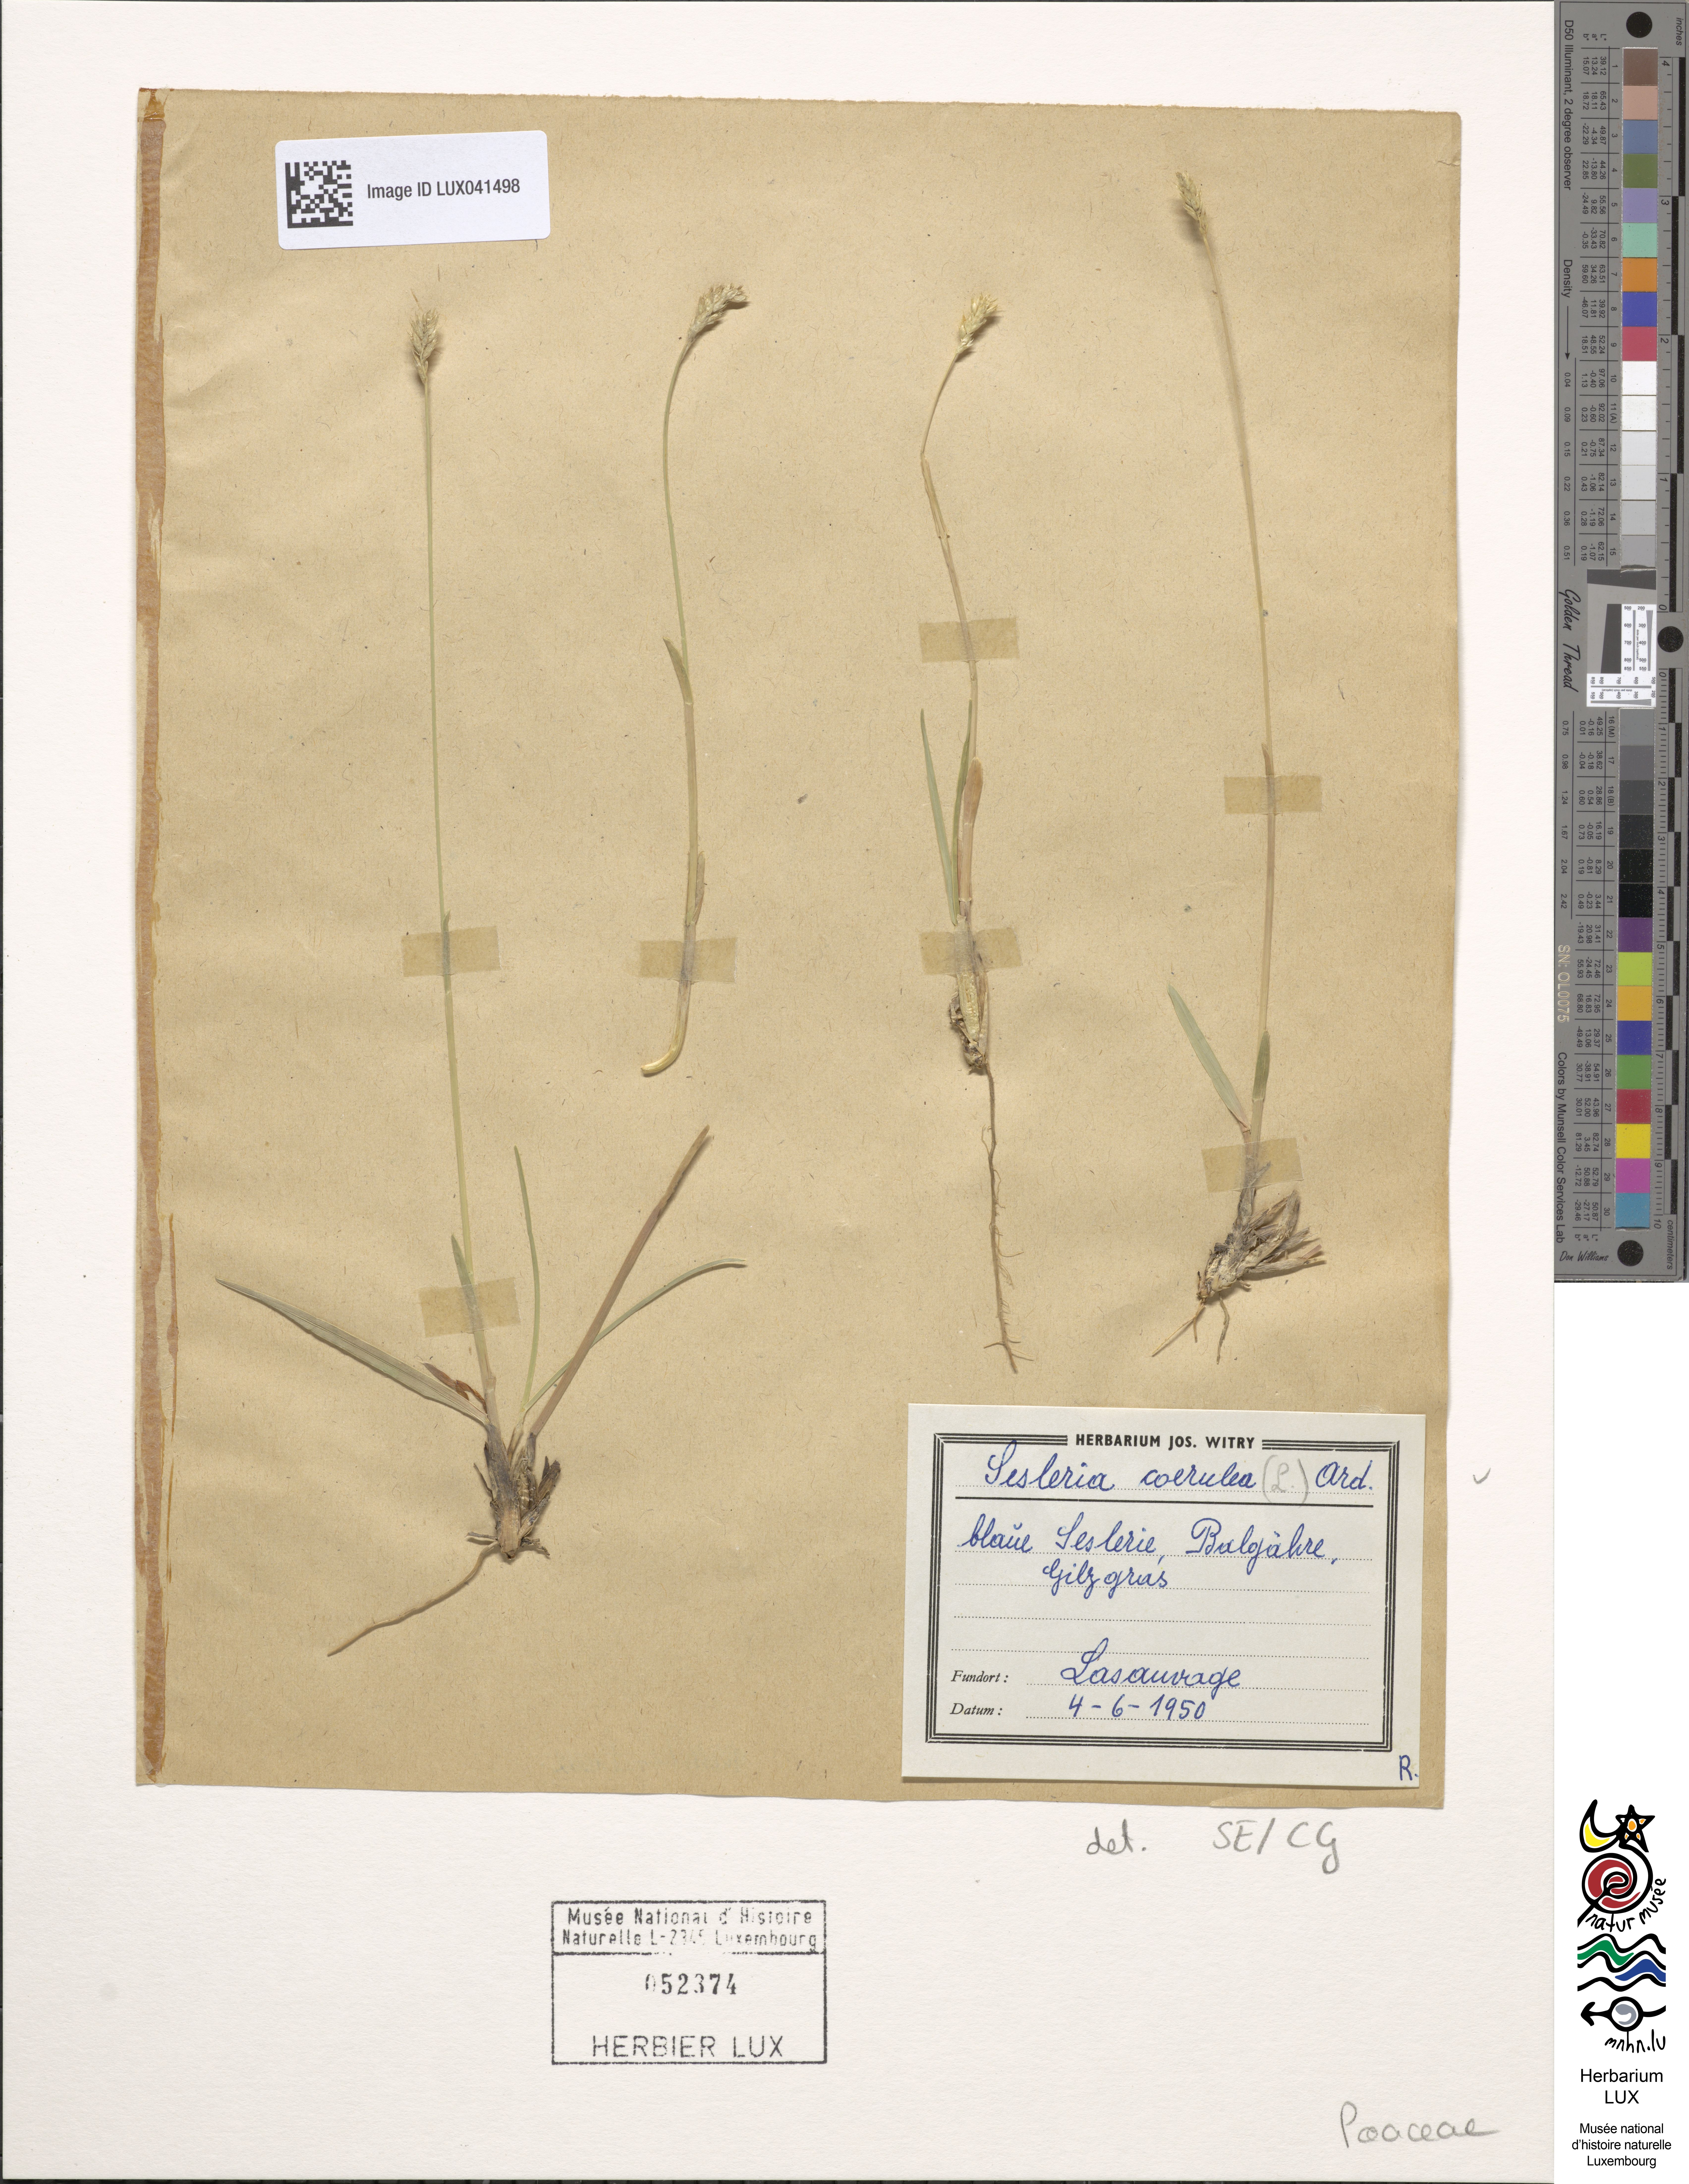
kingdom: Plantae
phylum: Tracheophyta
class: Liliopsida
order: Poales
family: Poaceae
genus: Sesleria
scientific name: Sesleria caerulea
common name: Blue moor-grass
